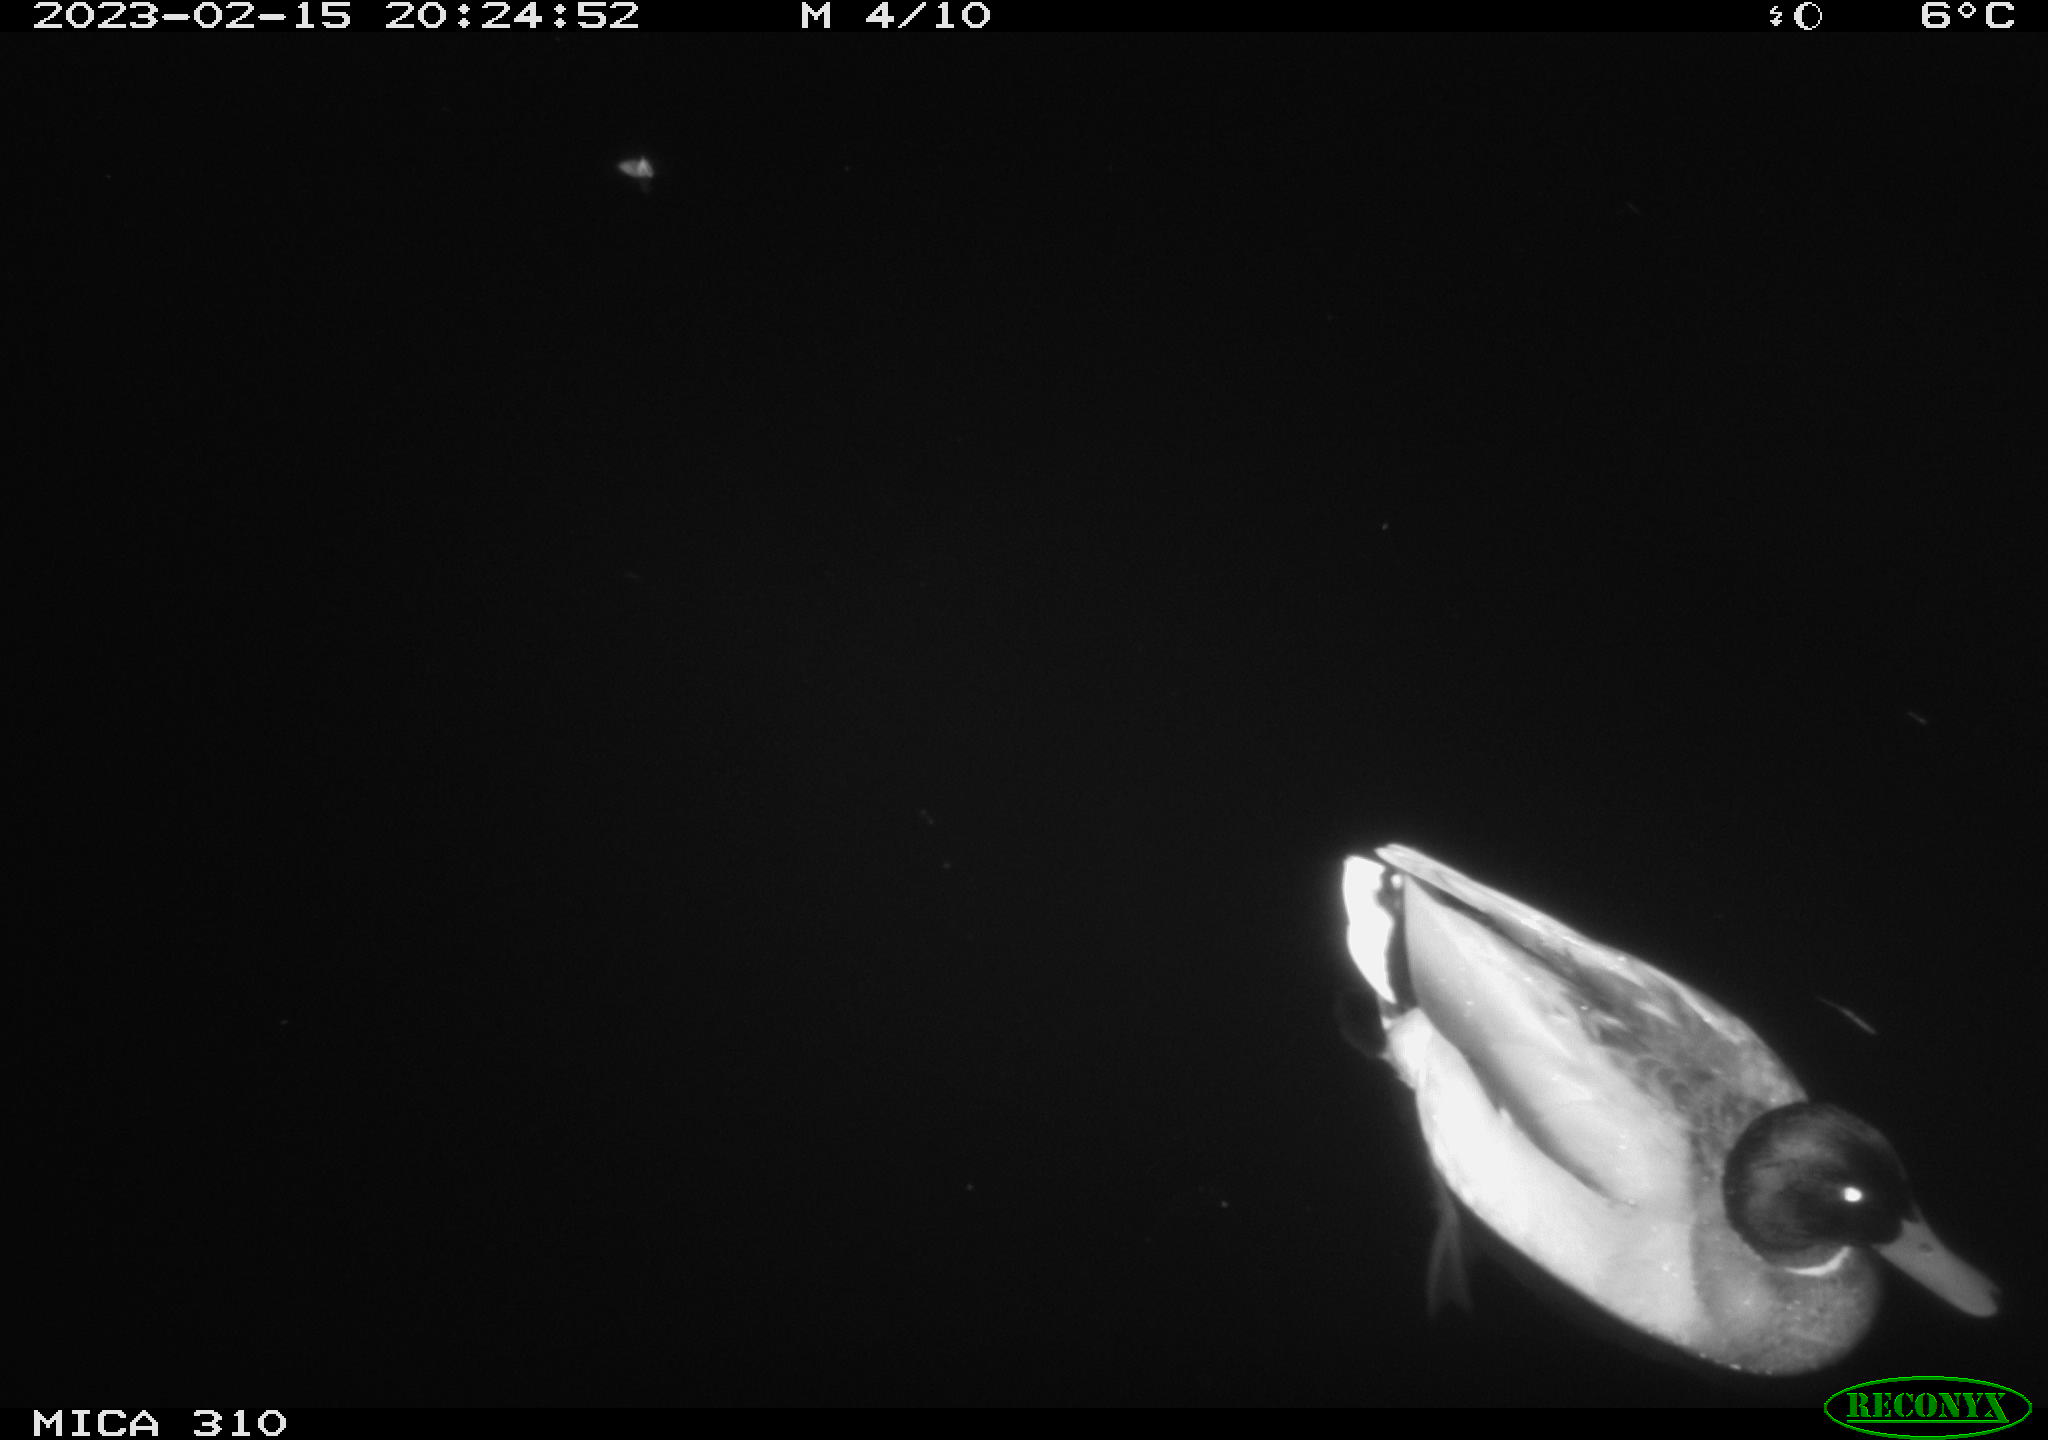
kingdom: Animalia
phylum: Chordata
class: Aves
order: Anseriformes
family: Anatidae
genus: Anas
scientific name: Anas
